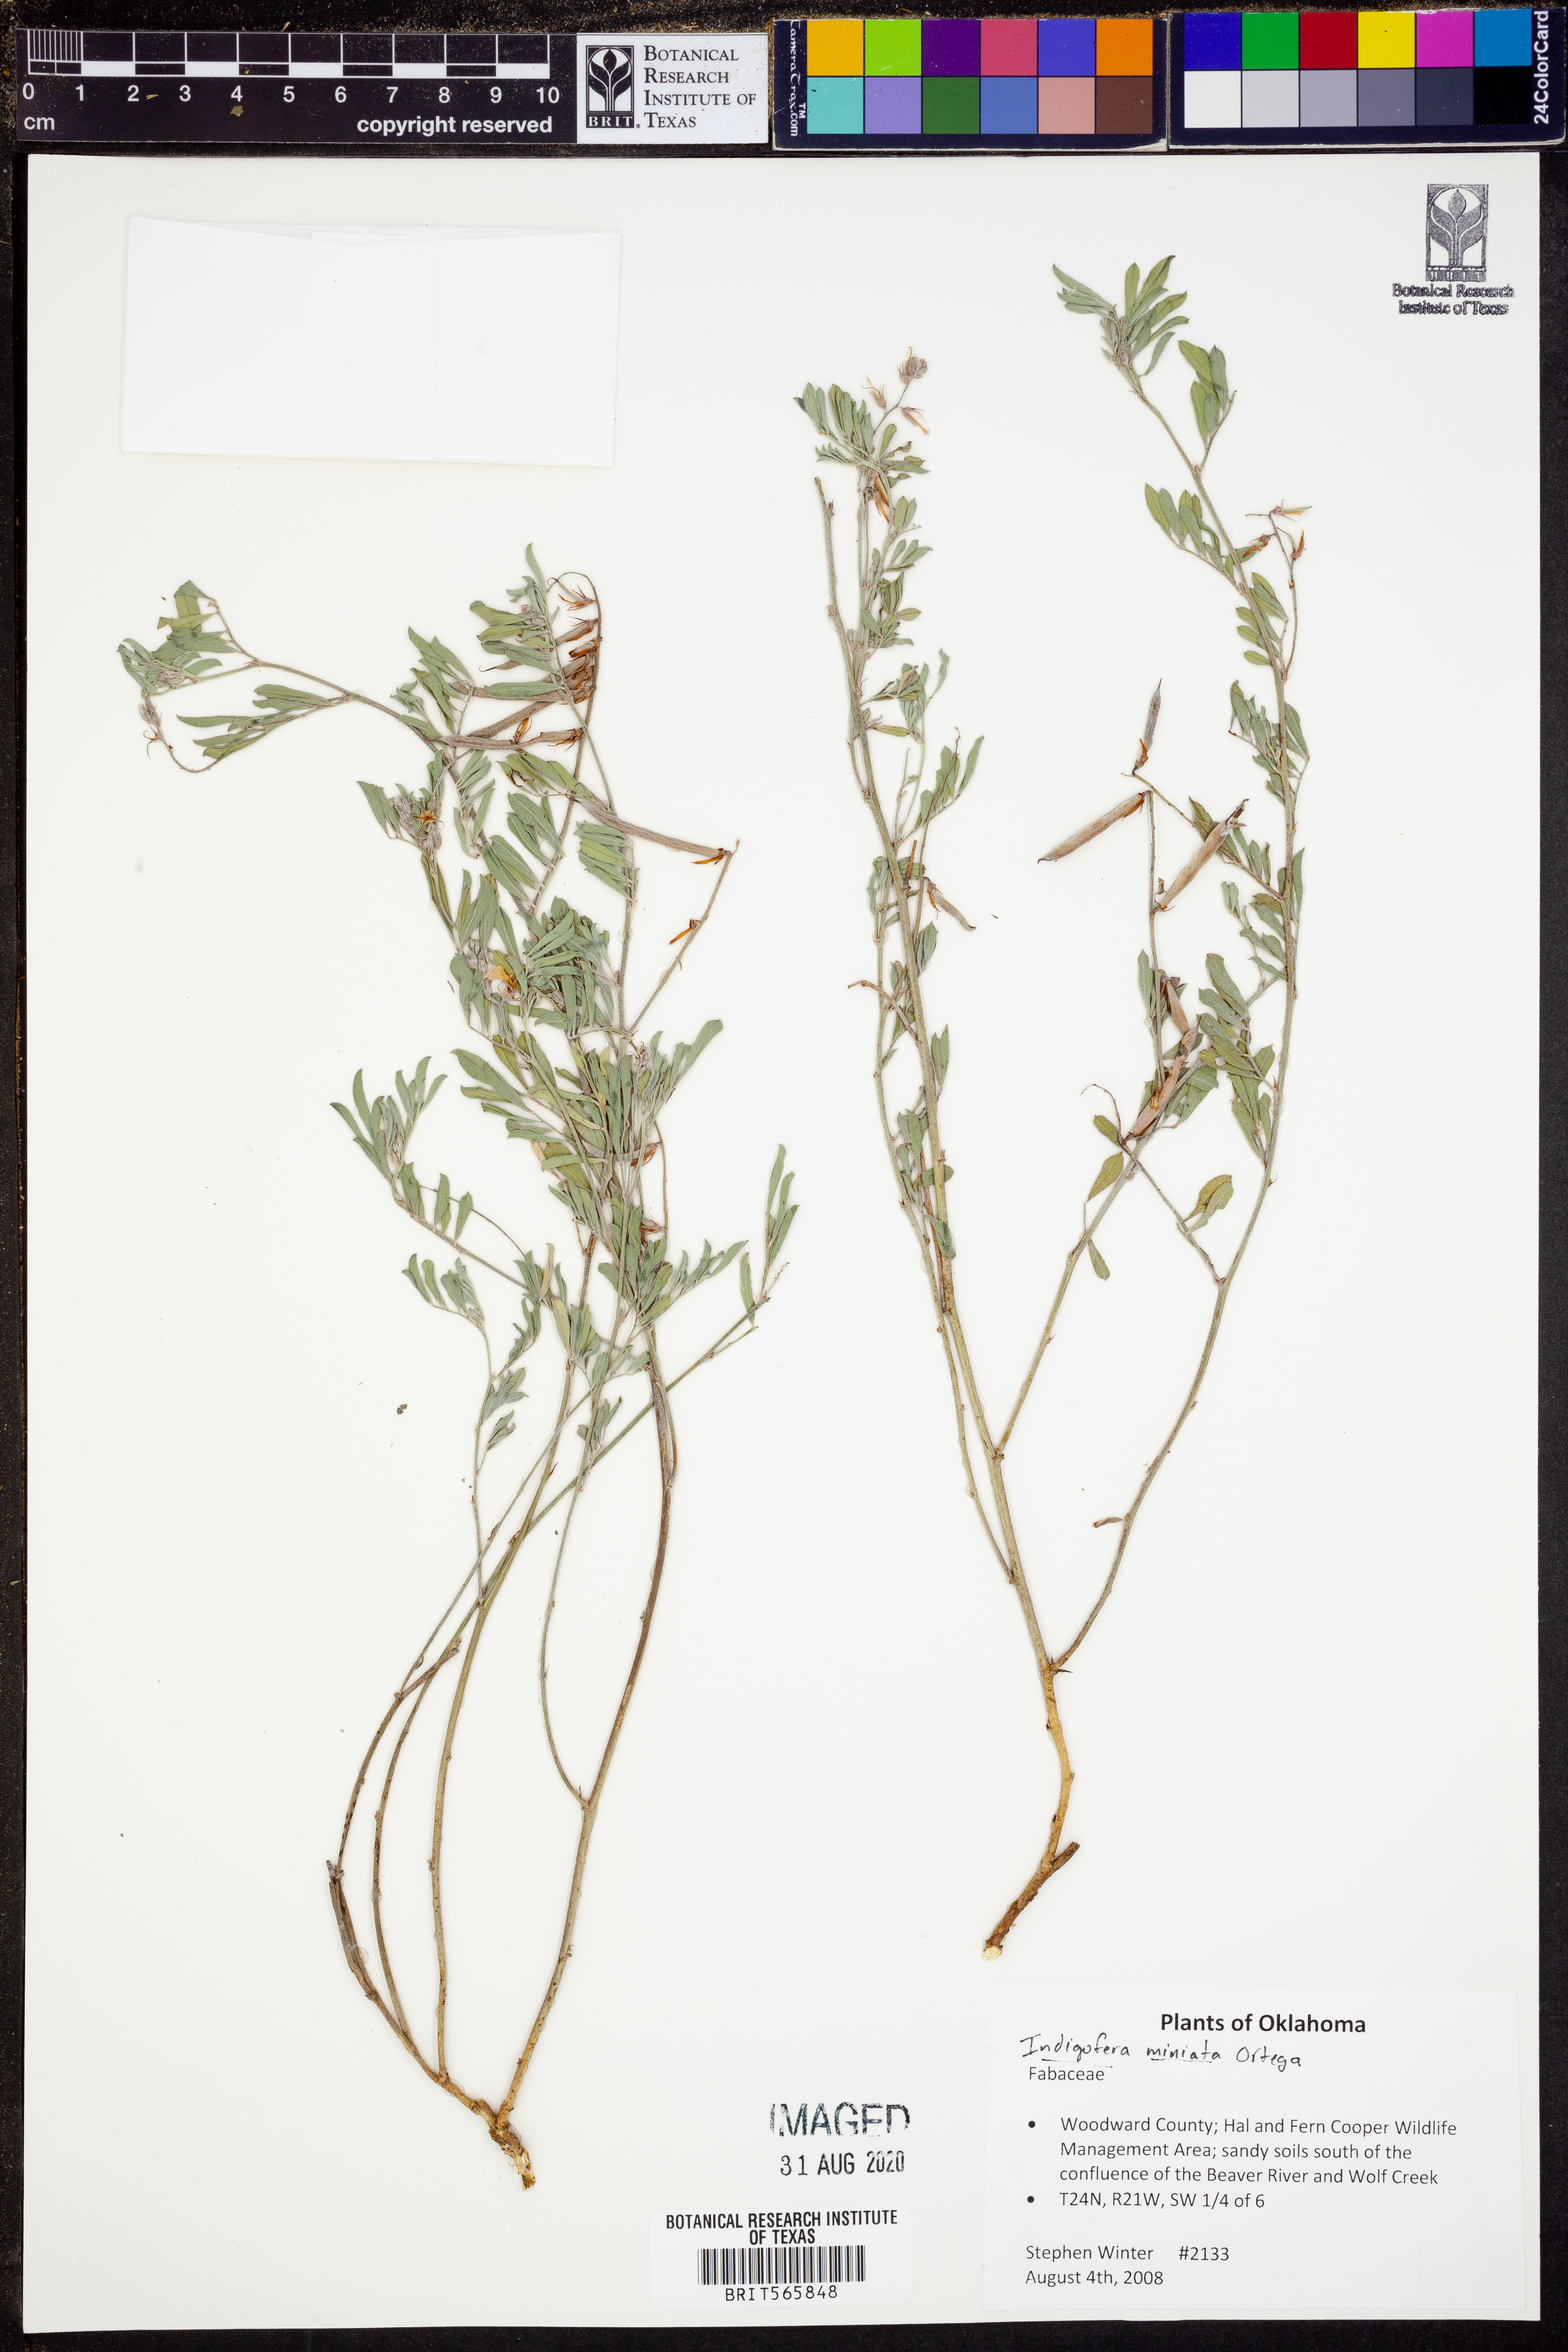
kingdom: Plantae
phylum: Tracheophyta
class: Magnoliopsida
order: Fabales
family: Fabaceae
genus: Indigofera
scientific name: Indigofera miniata
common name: Coast indigo
